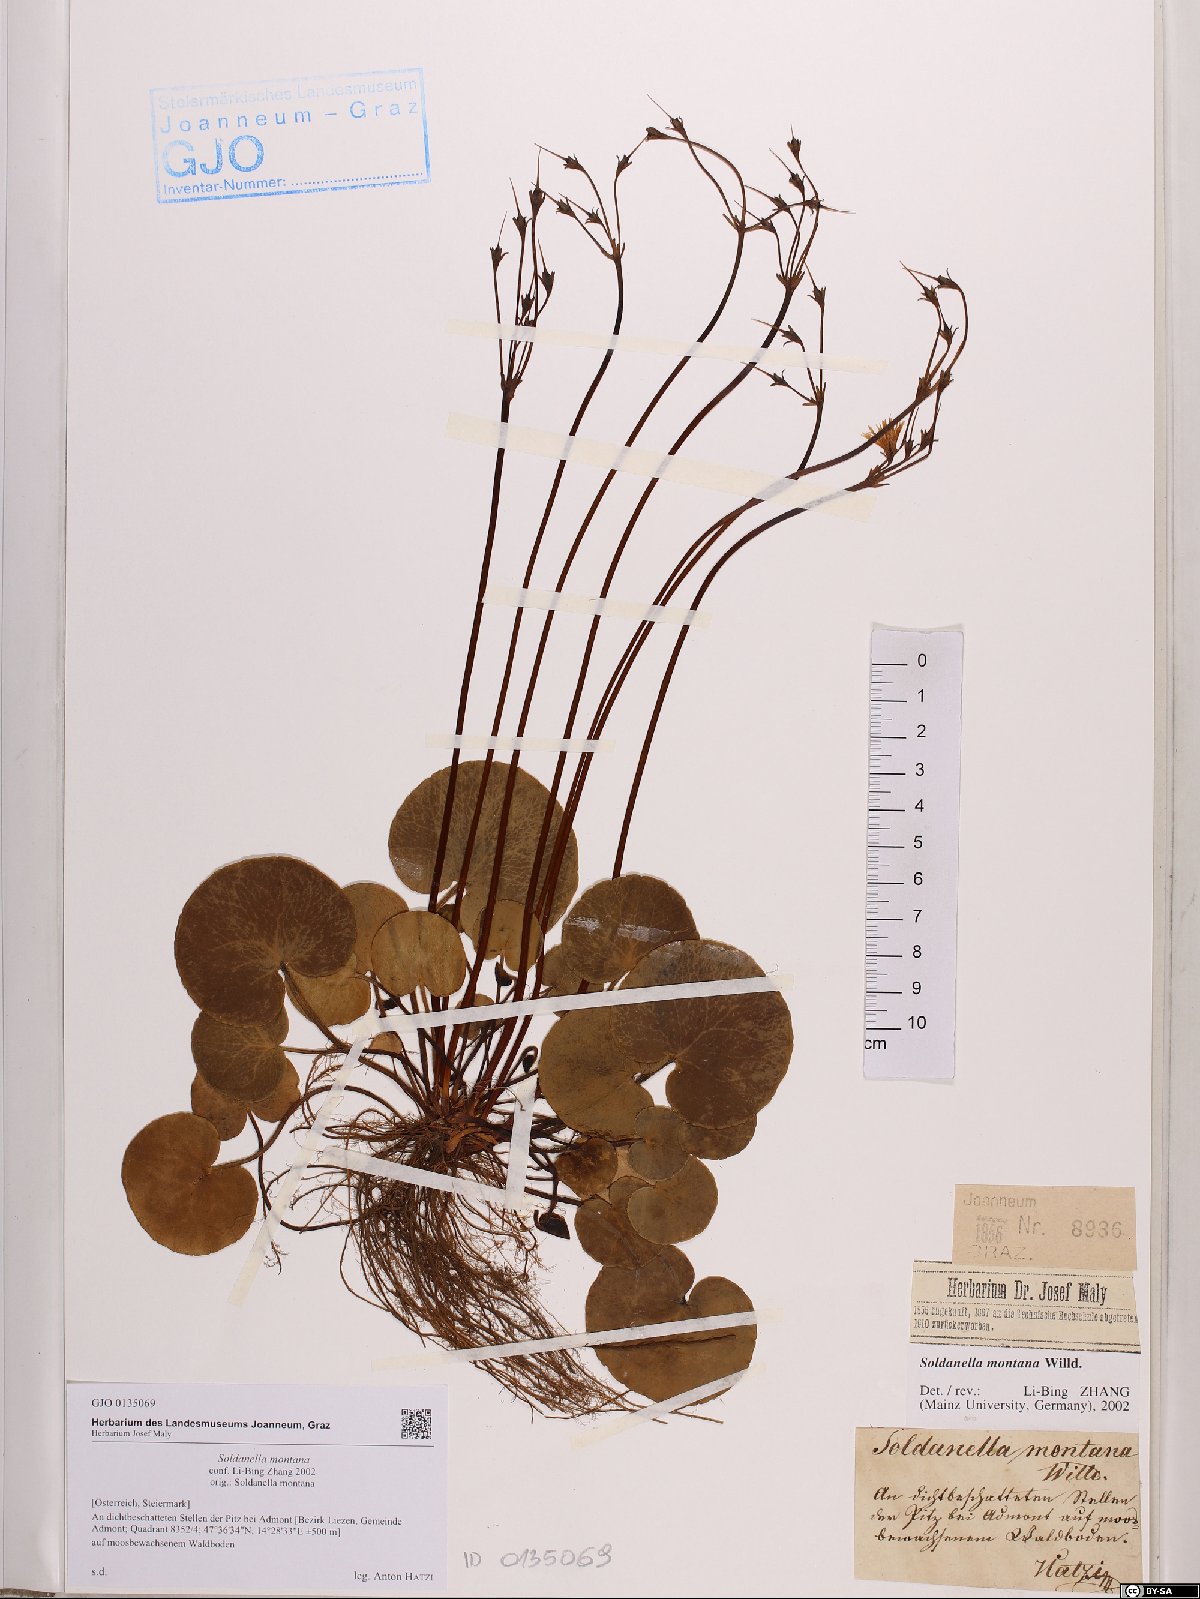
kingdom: Plantae
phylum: Tracheophyta
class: Magnoliopsida
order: Ericales
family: Primulaceae
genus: Soldanella
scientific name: Soldanella montana
